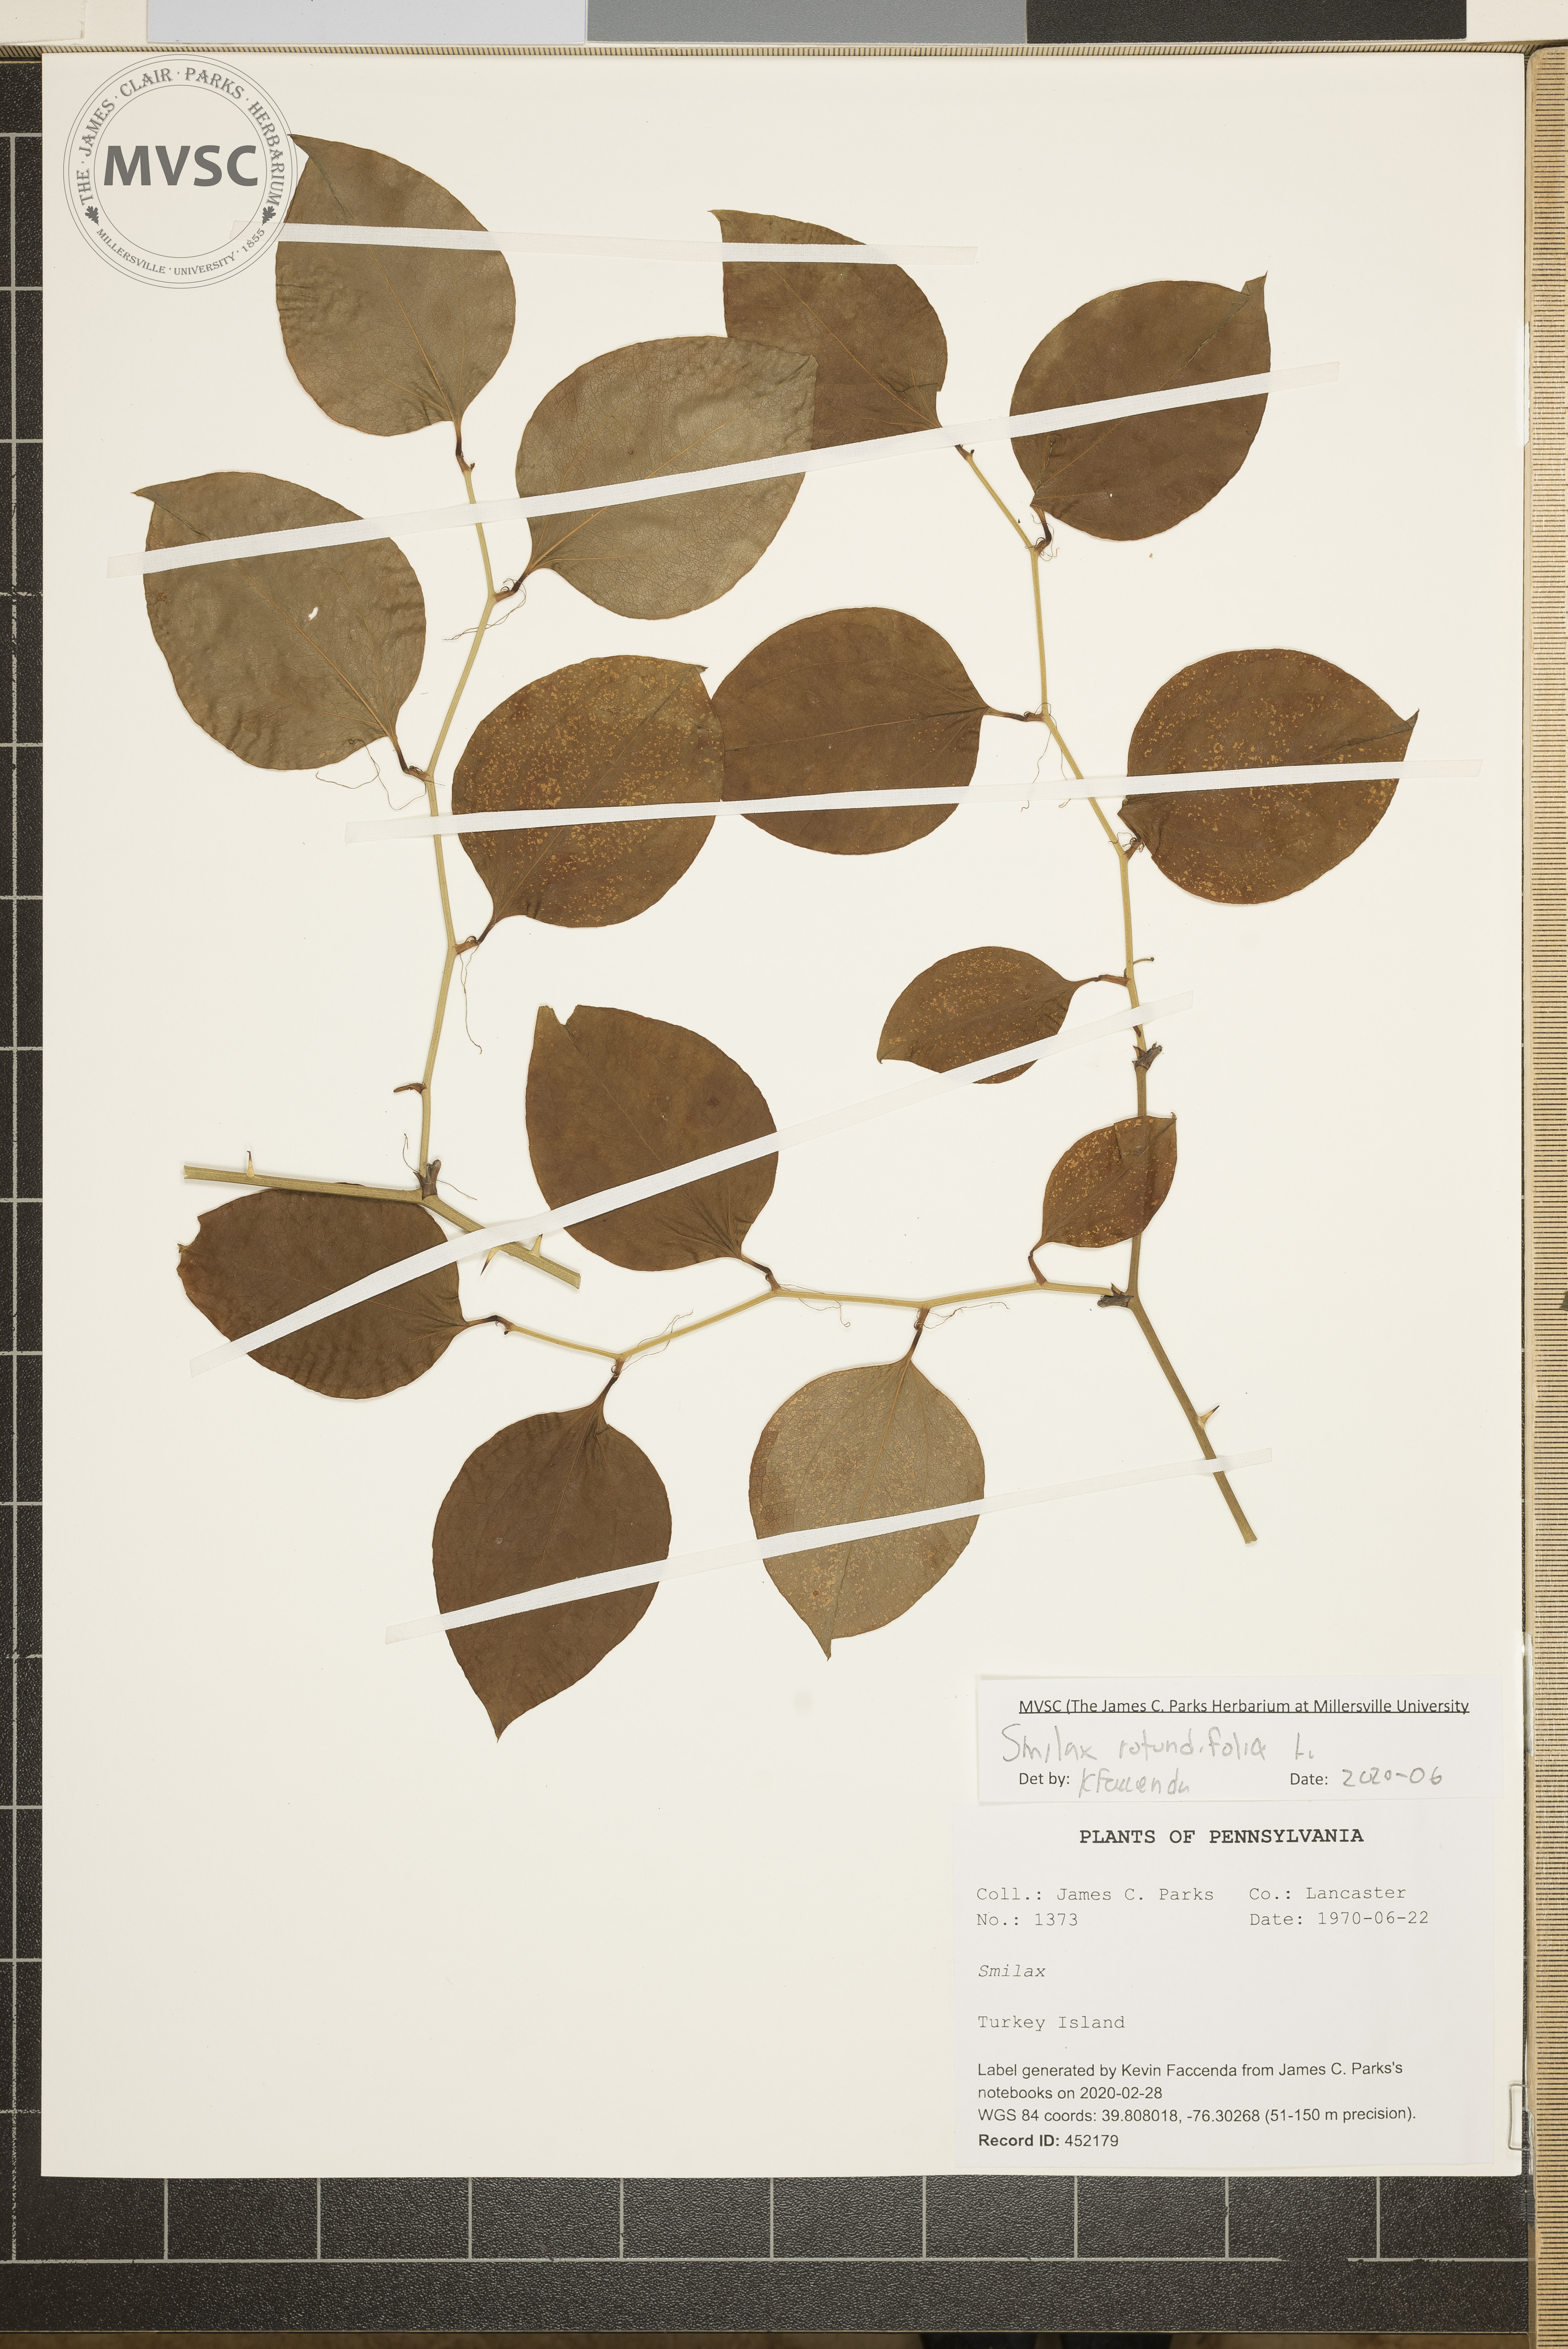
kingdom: Plantae
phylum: Tracheophyta
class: Liliopsida
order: Liliales
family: Smilacaceae
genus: Smilax
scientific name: Smilax rotundifolia
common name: Bullbriar
